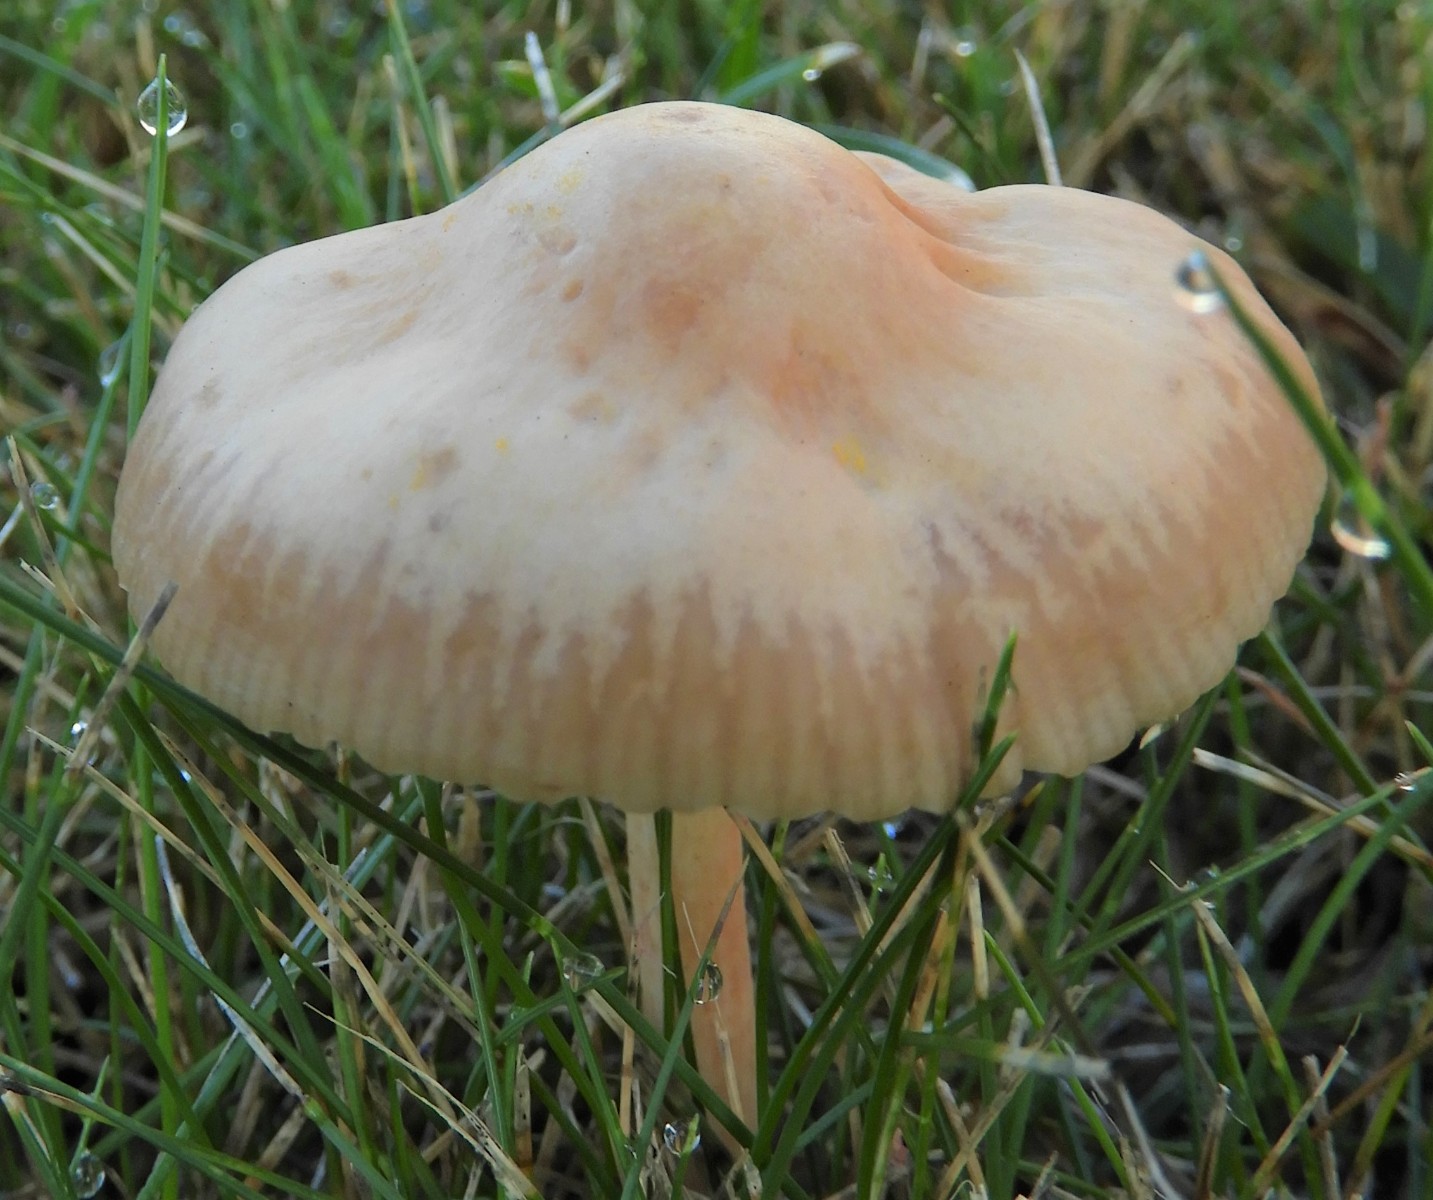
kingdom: Fungi
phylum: Basidiomycota
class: Agaricomycetes
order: Agaricales
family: Marasmiaceae
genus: Marasmius
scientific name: Marasmius oreades
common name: elledans-bruskhat
